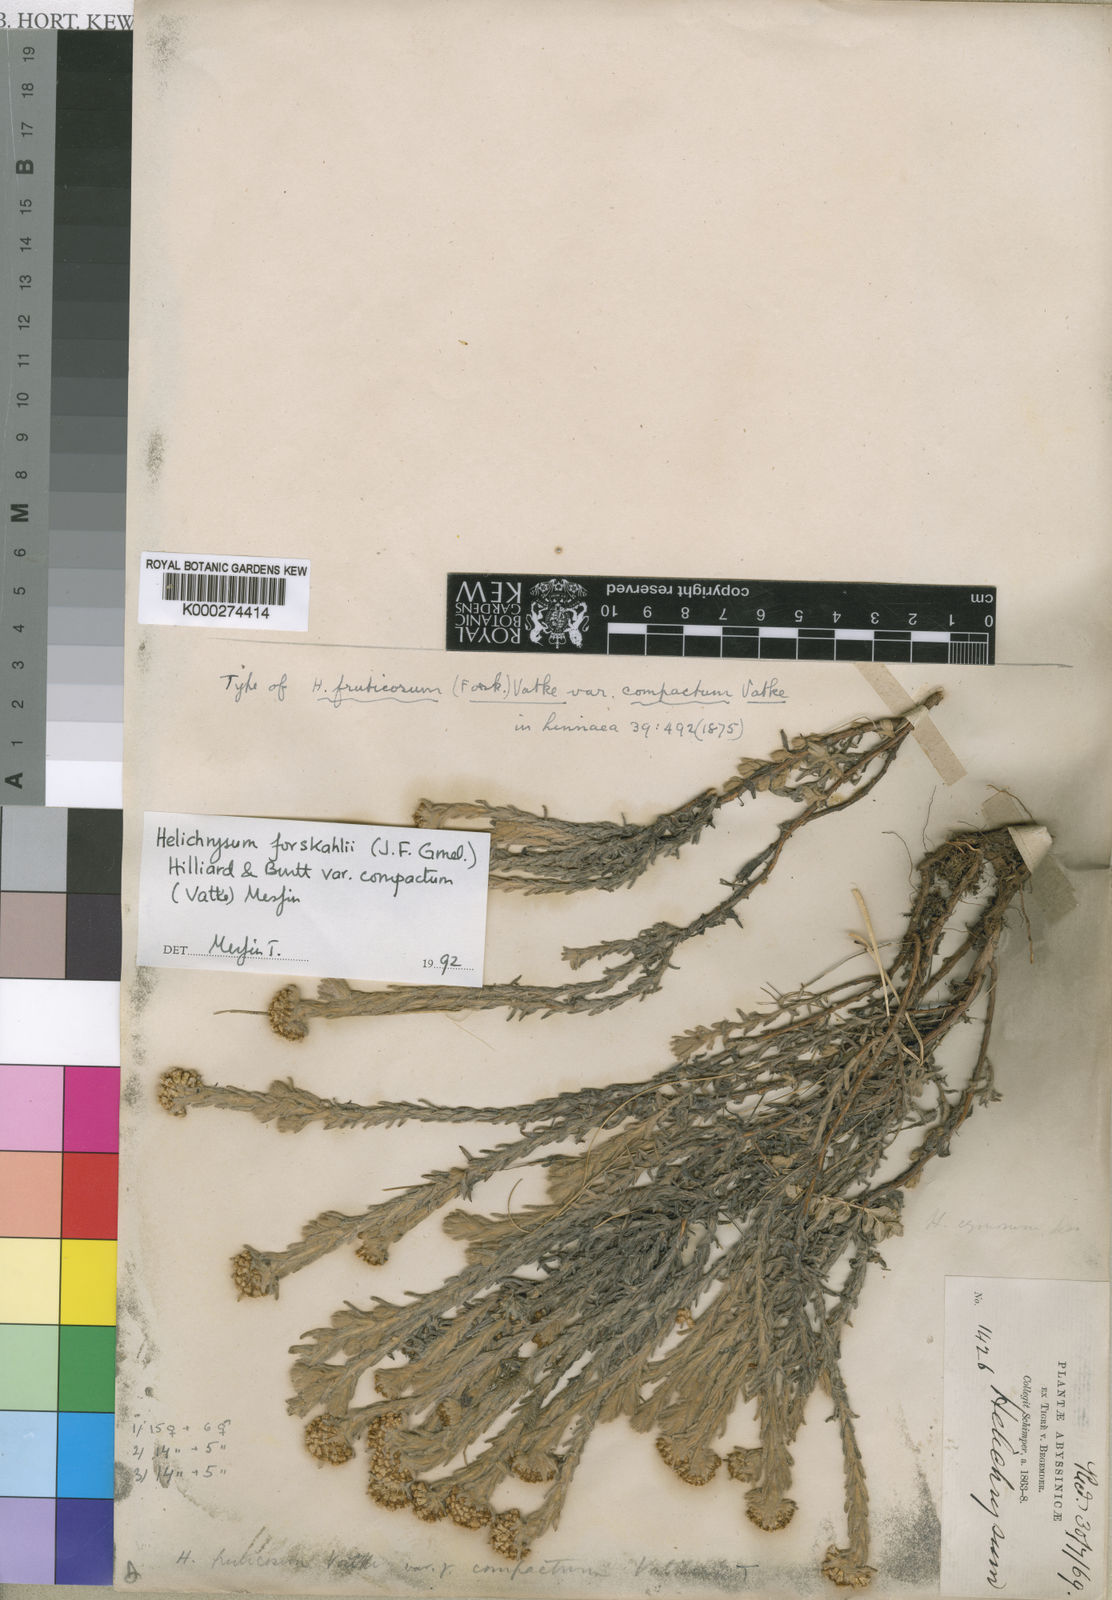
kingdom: Plantae
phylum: Tracheophyta
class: Magnoliopsida
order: Asterales
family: Asteraceae
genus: Helichrysum
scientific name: Helichrysum forskahlii
